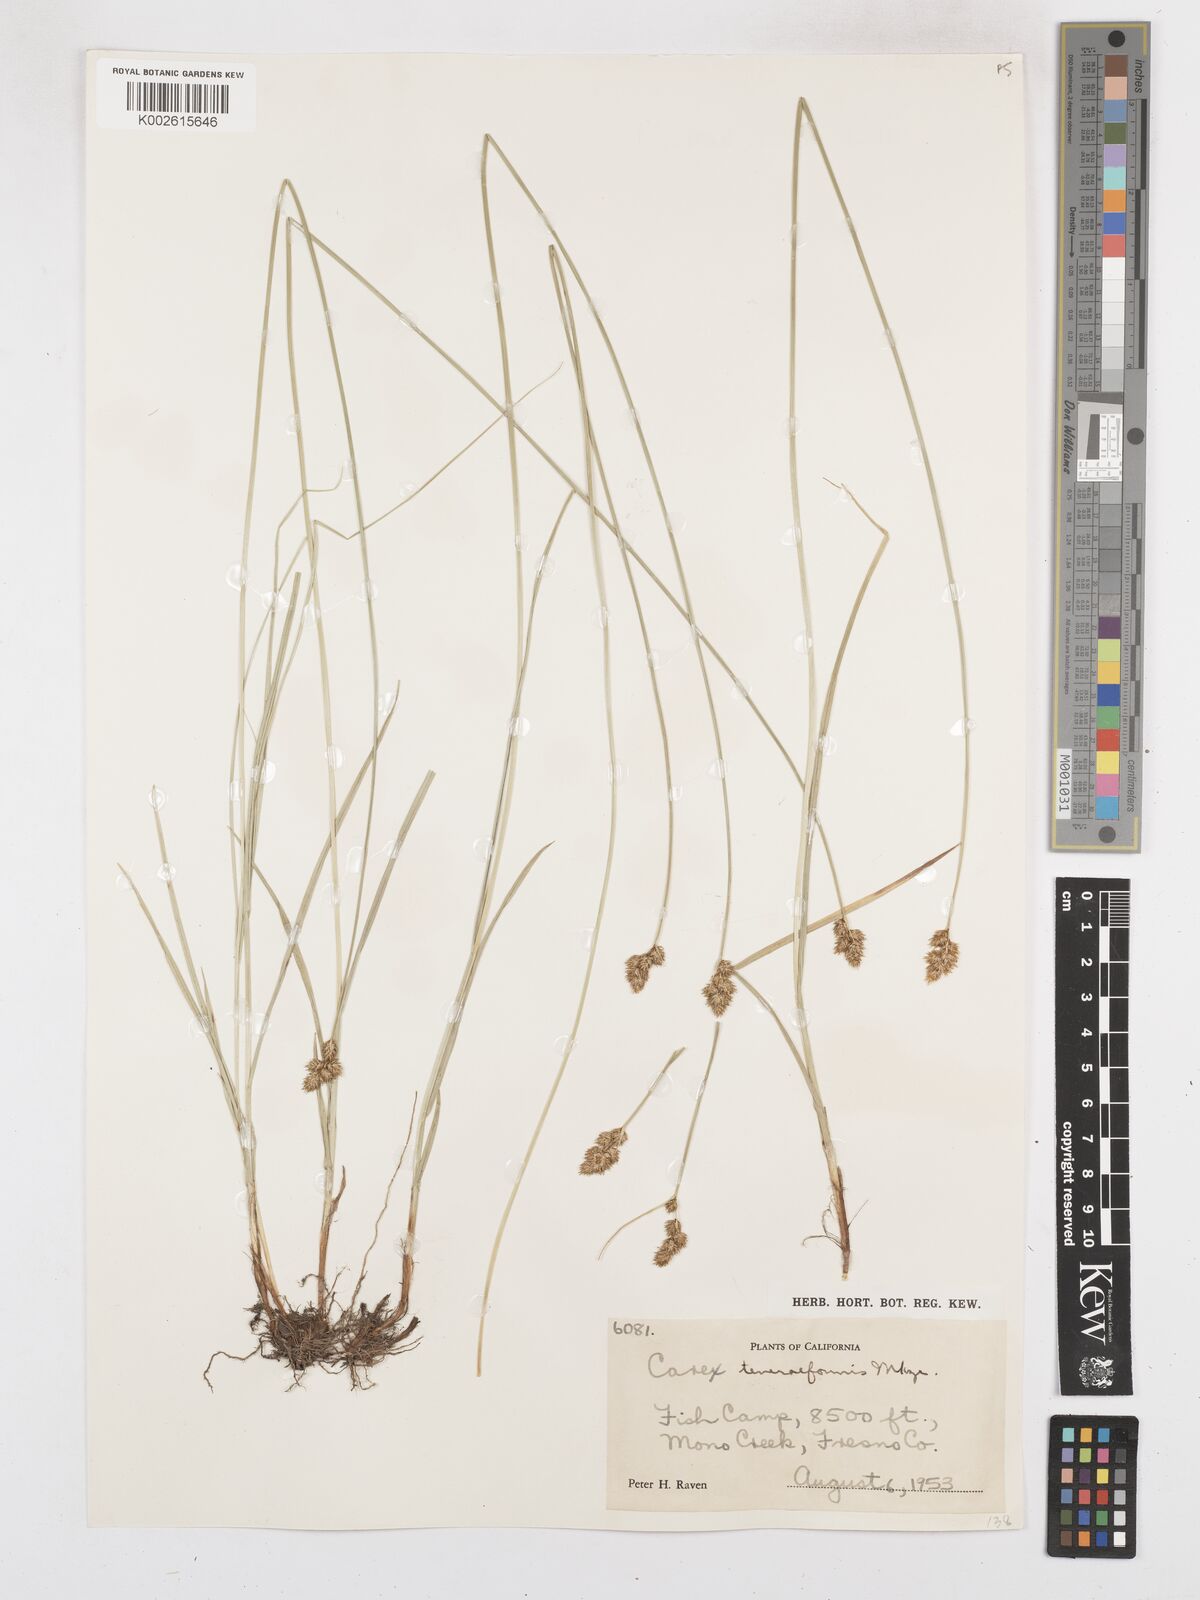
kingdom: Plantae
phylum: Tracheophyta
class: Liliopsida
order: Poales
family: Cyperaceae
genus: Carex
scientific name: Carex subfusca
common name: Brown sedge
